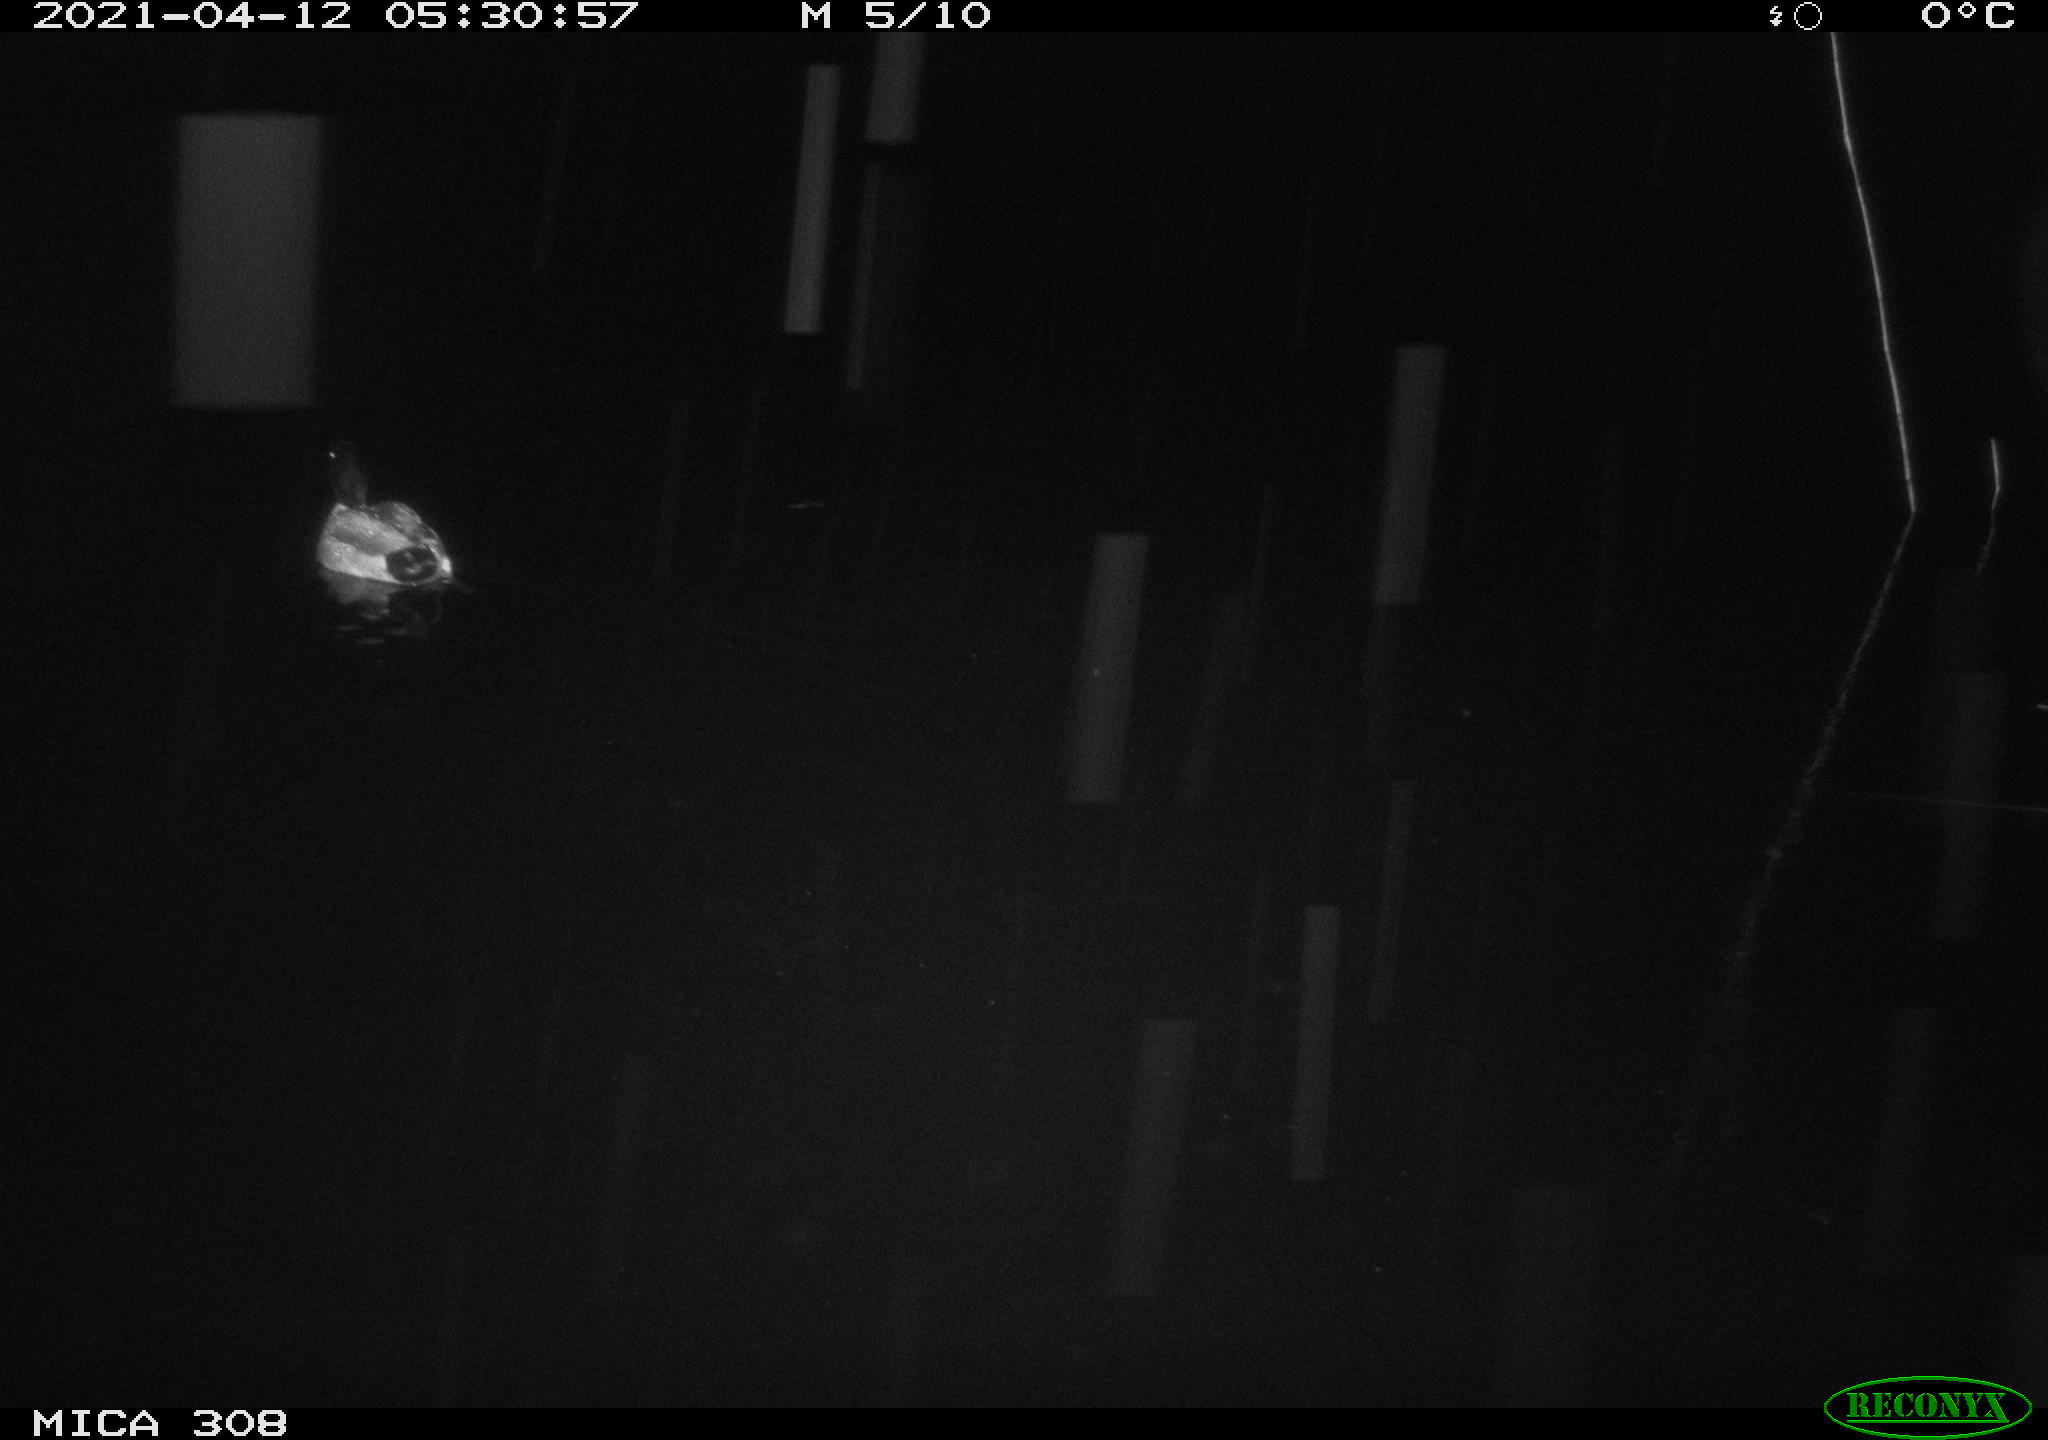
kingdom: Animalia
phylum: Chordata
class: Aves
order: Anseriformes
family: Anatidae
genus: Anas
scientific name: Anas platyrhynchos
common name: Mallard
